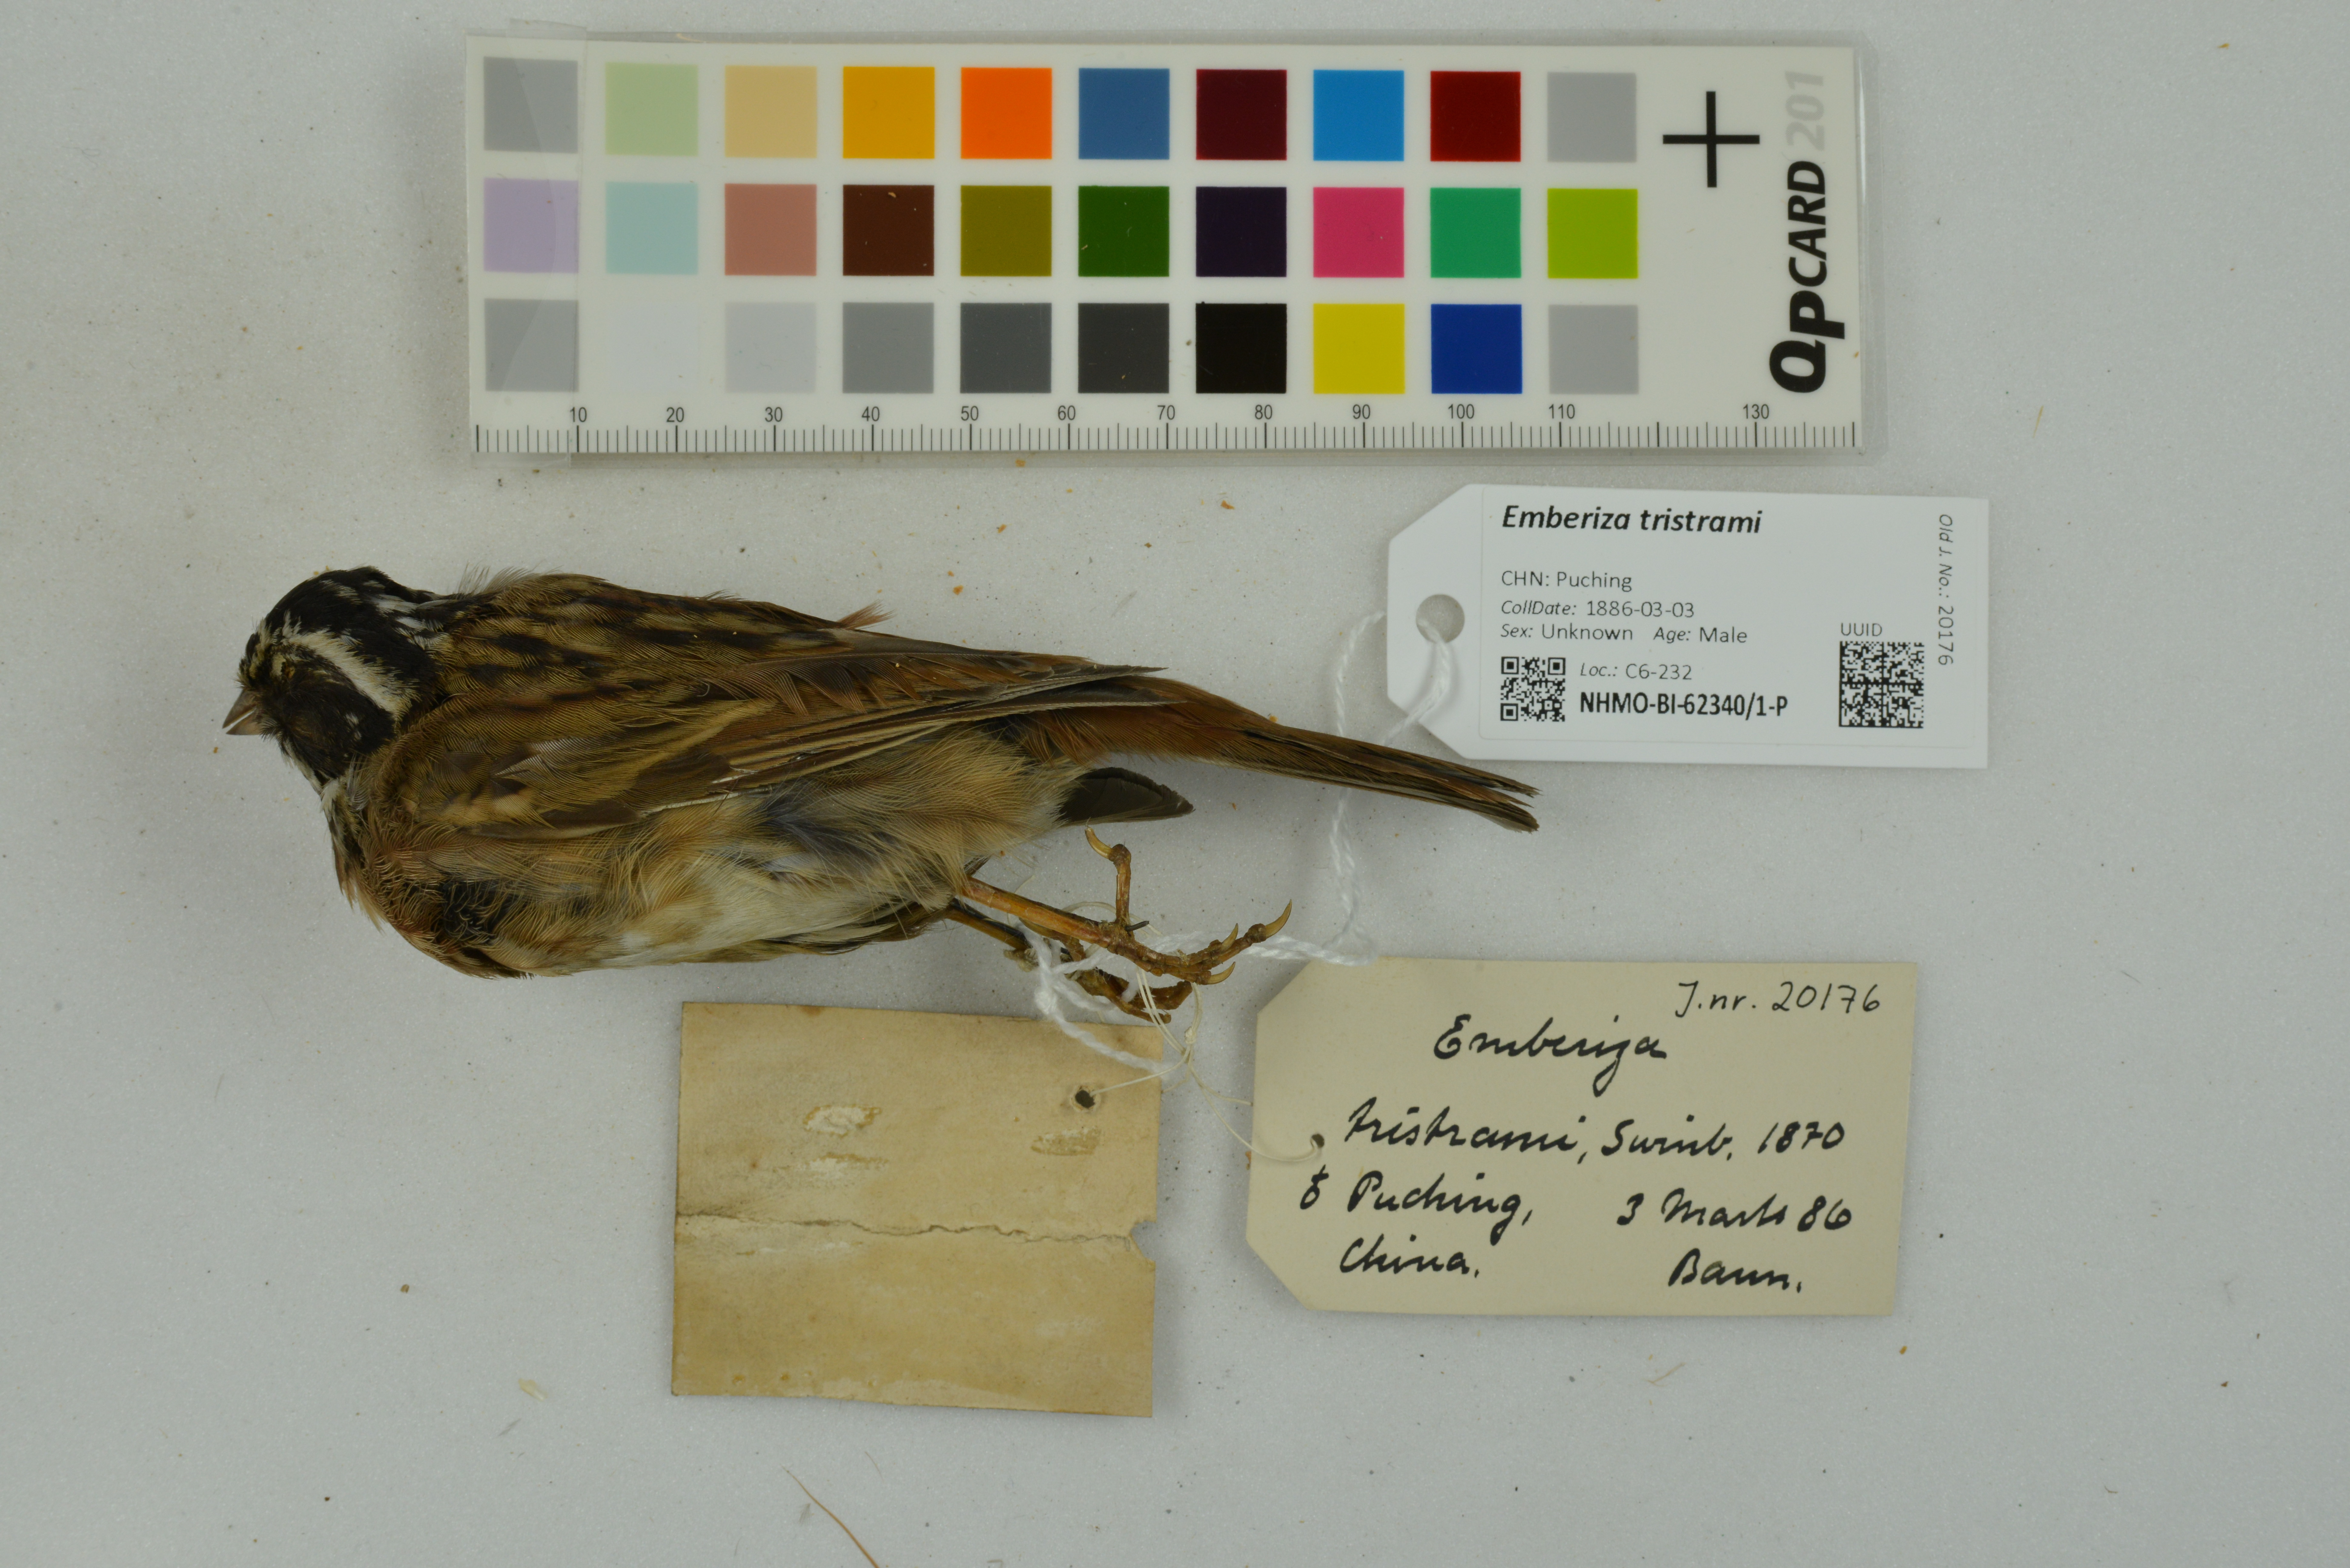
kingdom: Animalia
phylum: Chordata
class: Aves
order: Passeriformes
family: Emberizidae
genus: Emberiza
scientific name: Emberiza tristrami
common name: Tristram's bunting
